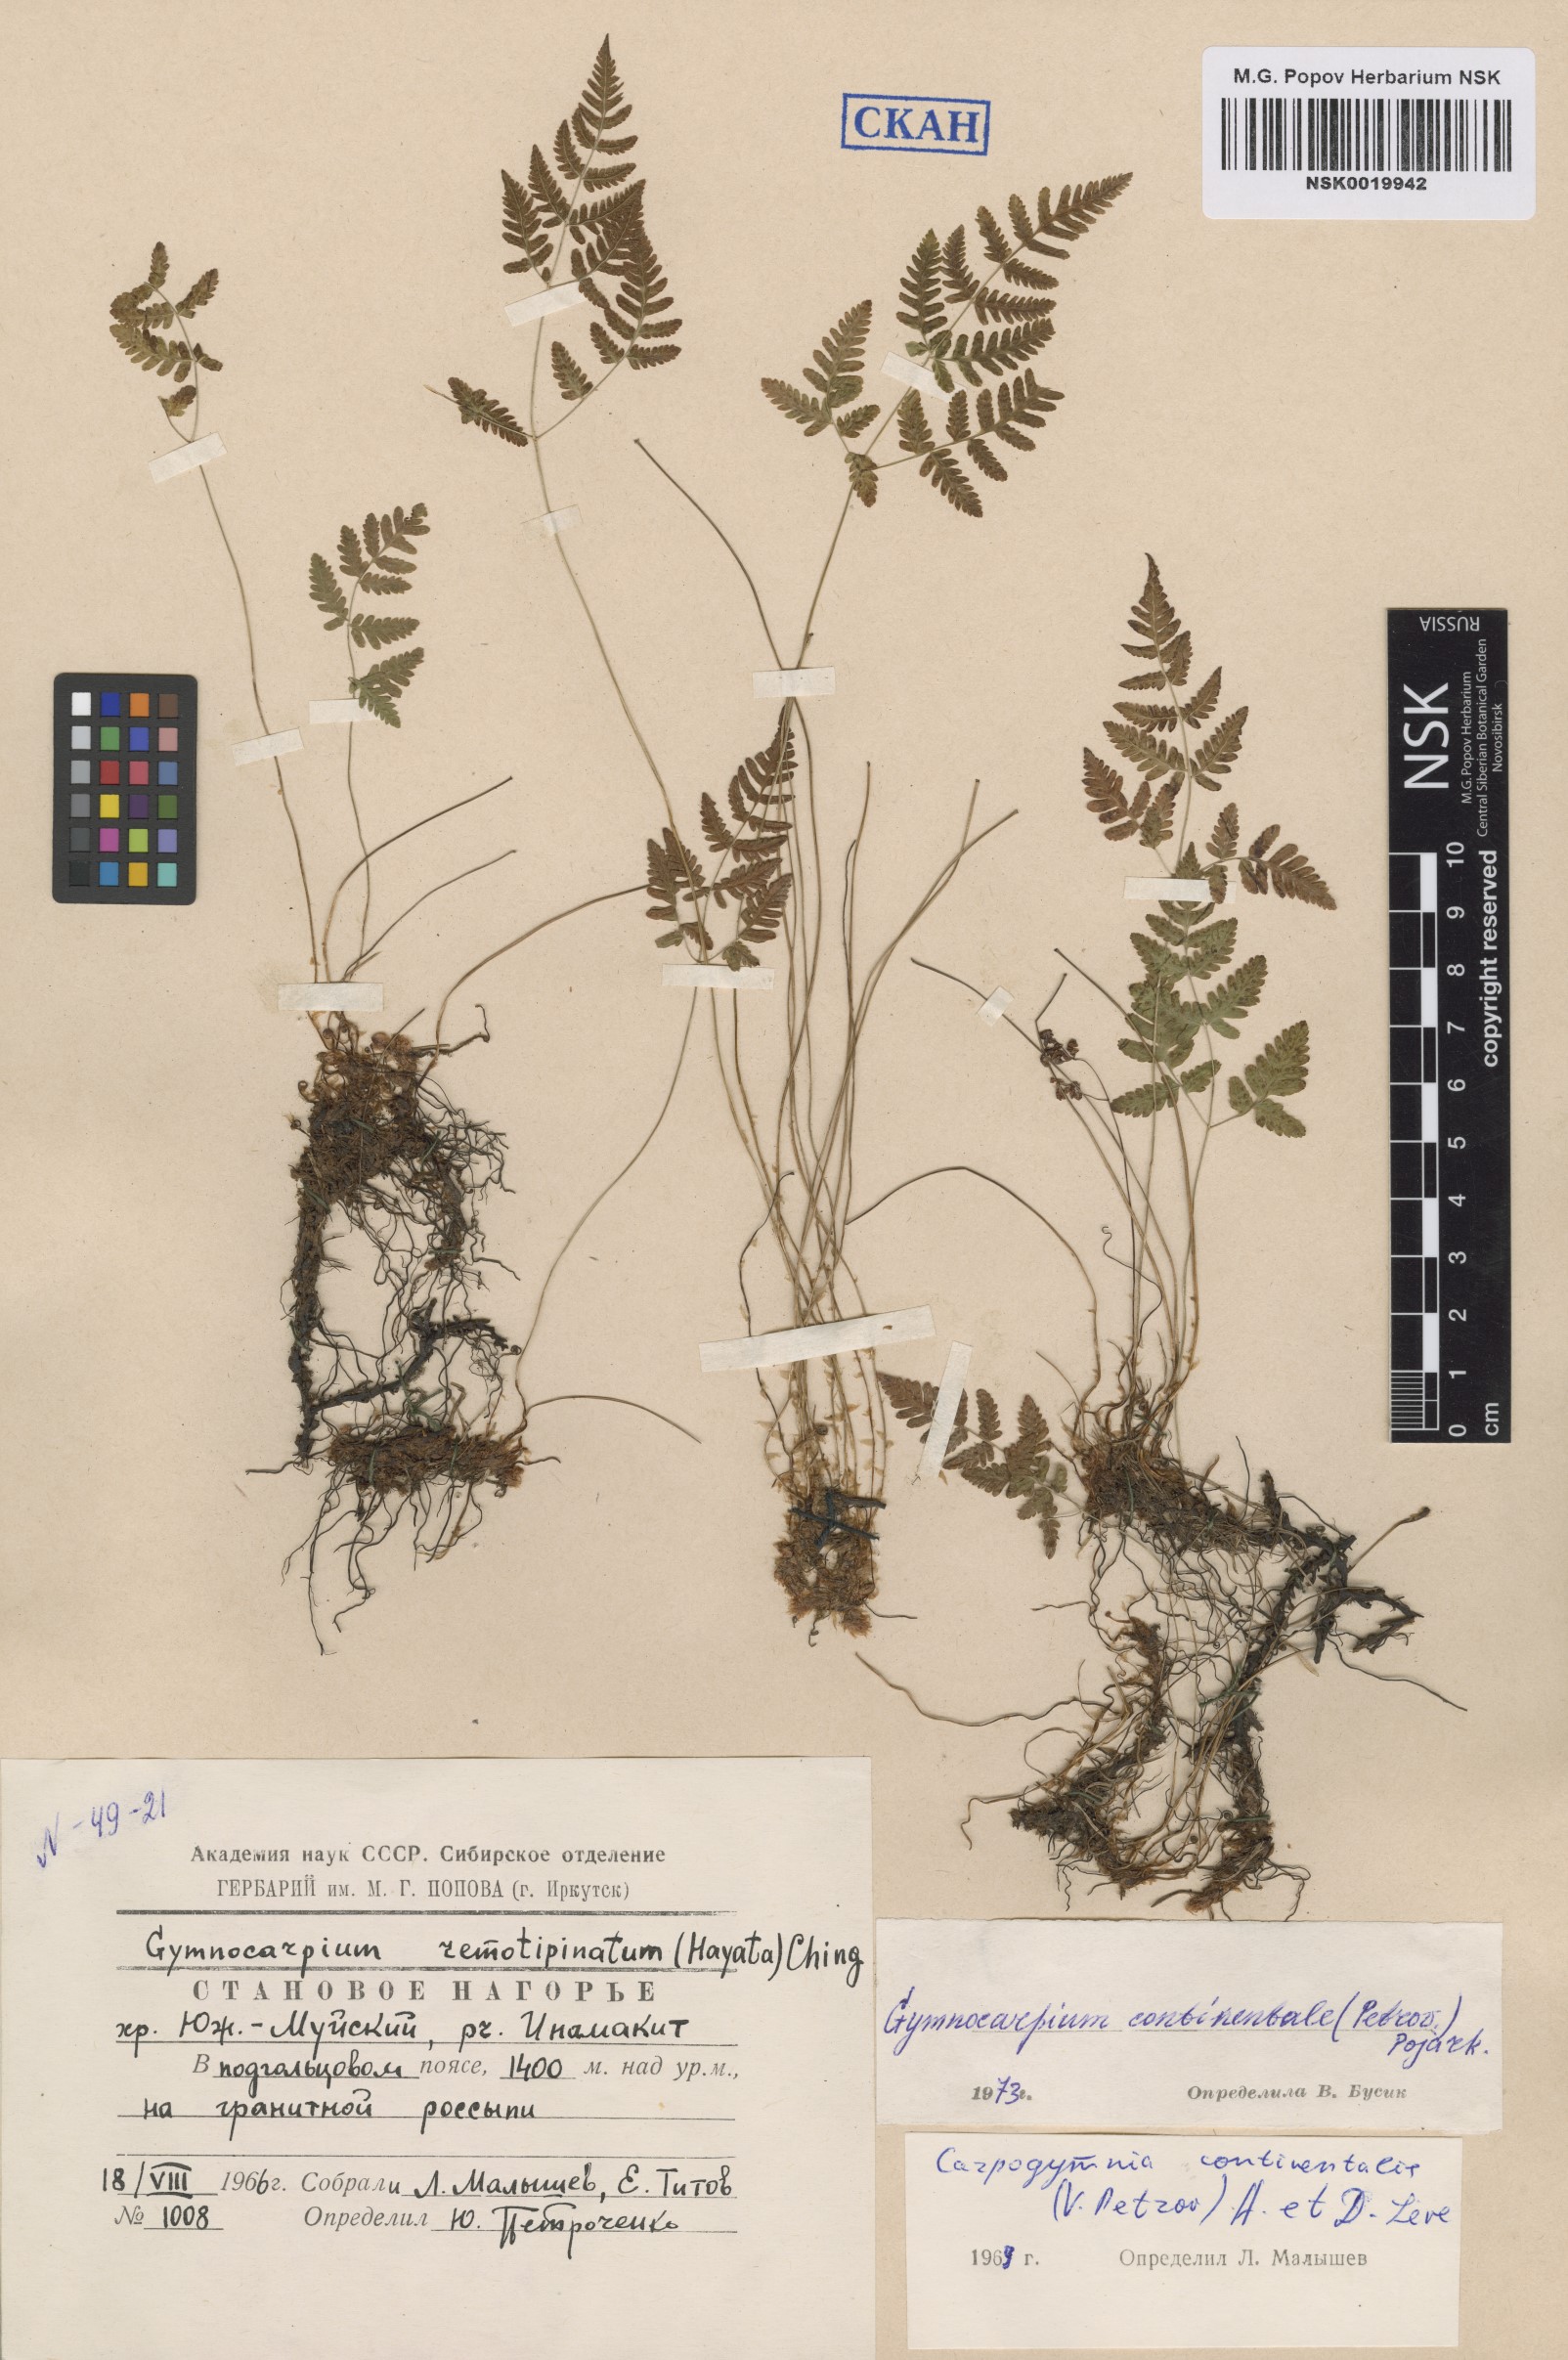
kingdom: Plantae
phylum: Tracheophyta
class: Polypodiopsida
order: Polypodiales
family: Cystopteridaceae
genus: Gymnocarpium
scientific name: Gymnocarpium continentale
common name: Asian oak fern
